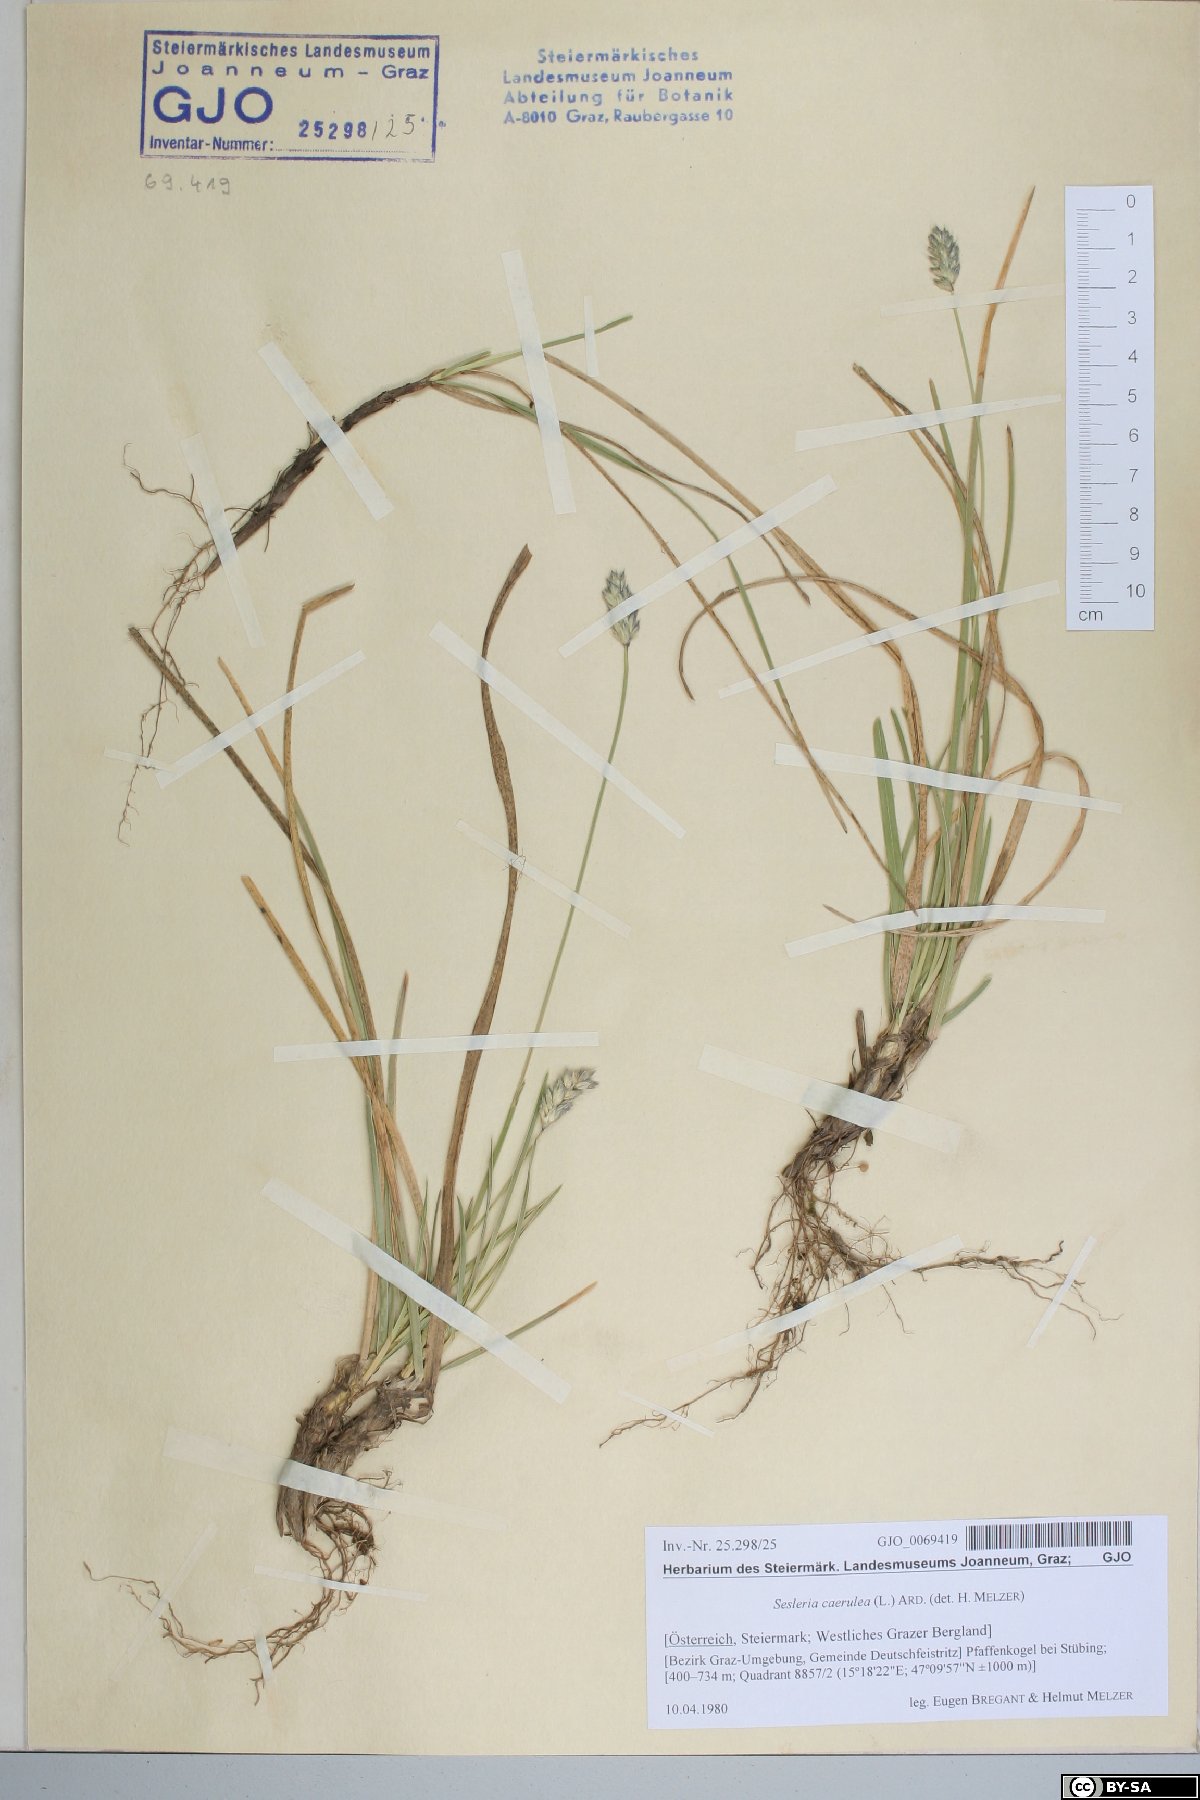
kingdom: Plantae
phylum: Tracheophyta
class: Liliopsida
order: Poales
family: Poaceae
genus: Sesleria
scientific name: Sesleria caerulea
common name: Blue moor-grass
